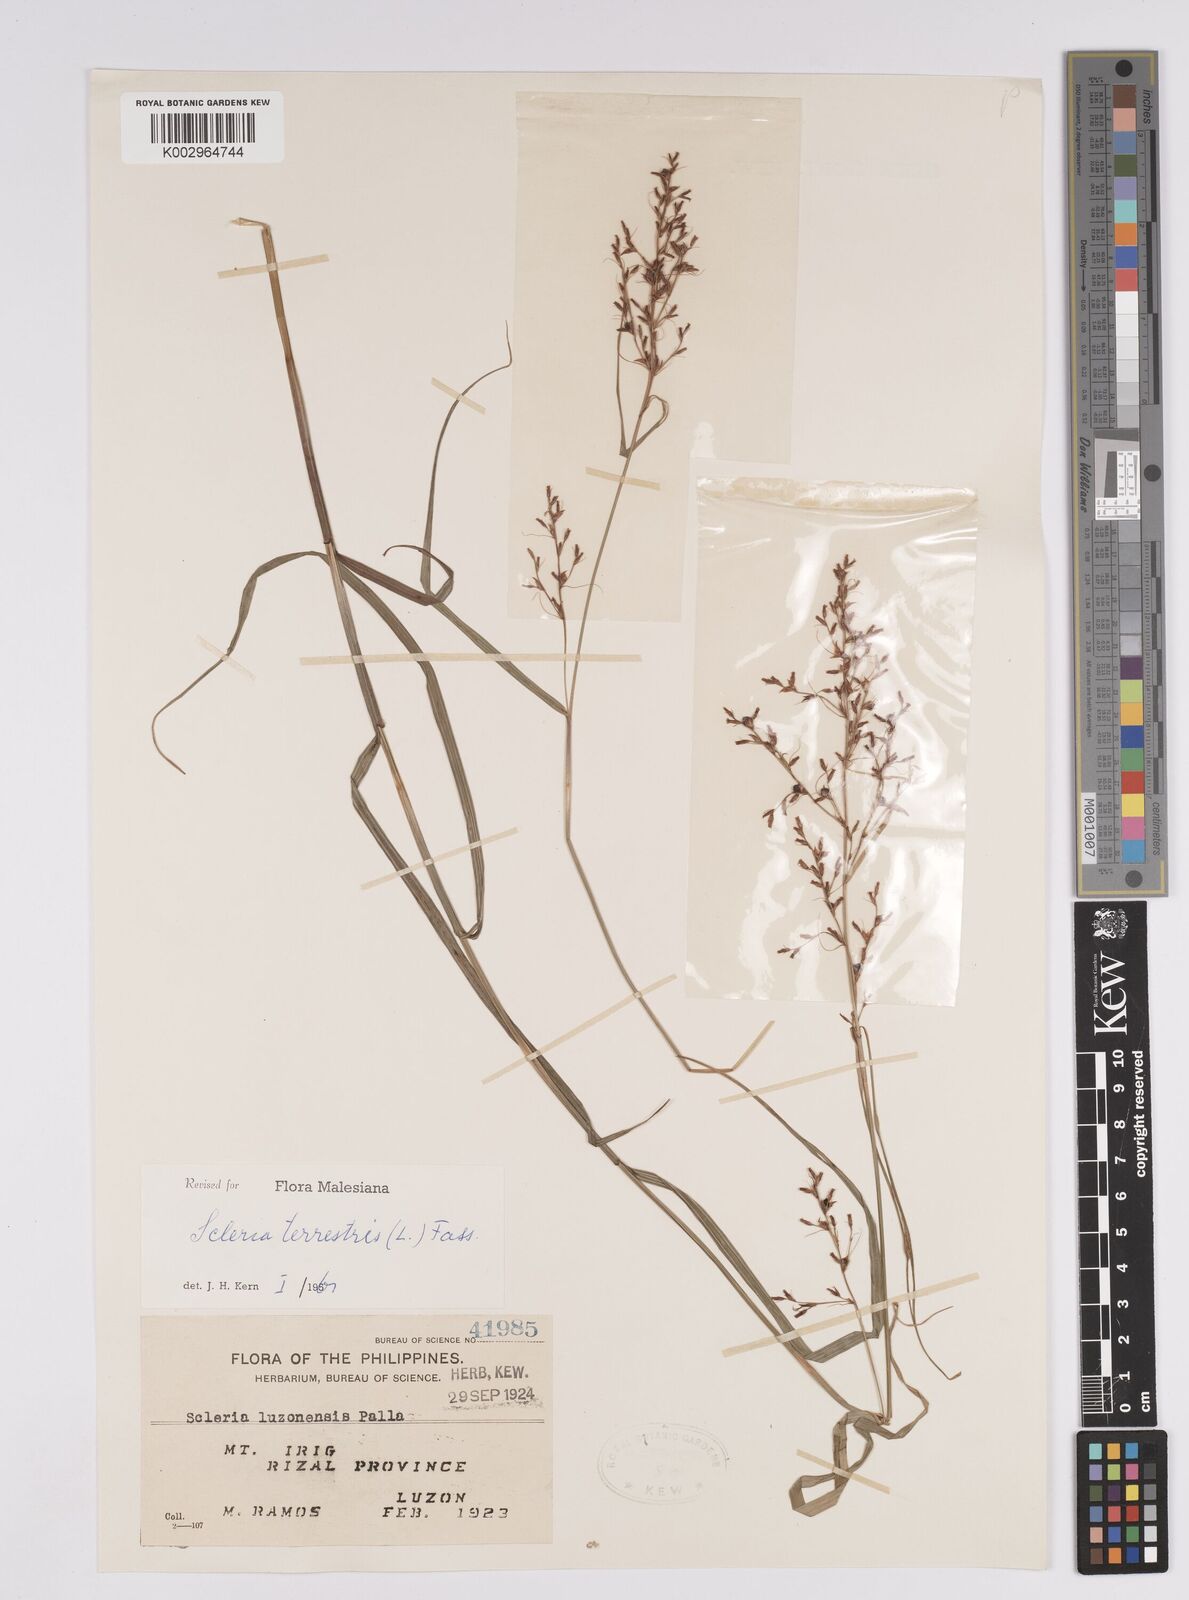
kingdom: Plantae
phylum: Tracheophyta
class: Liliopsida
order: Poales
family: Cyperaceae
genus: Scleria
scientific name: Scleria terrestris
